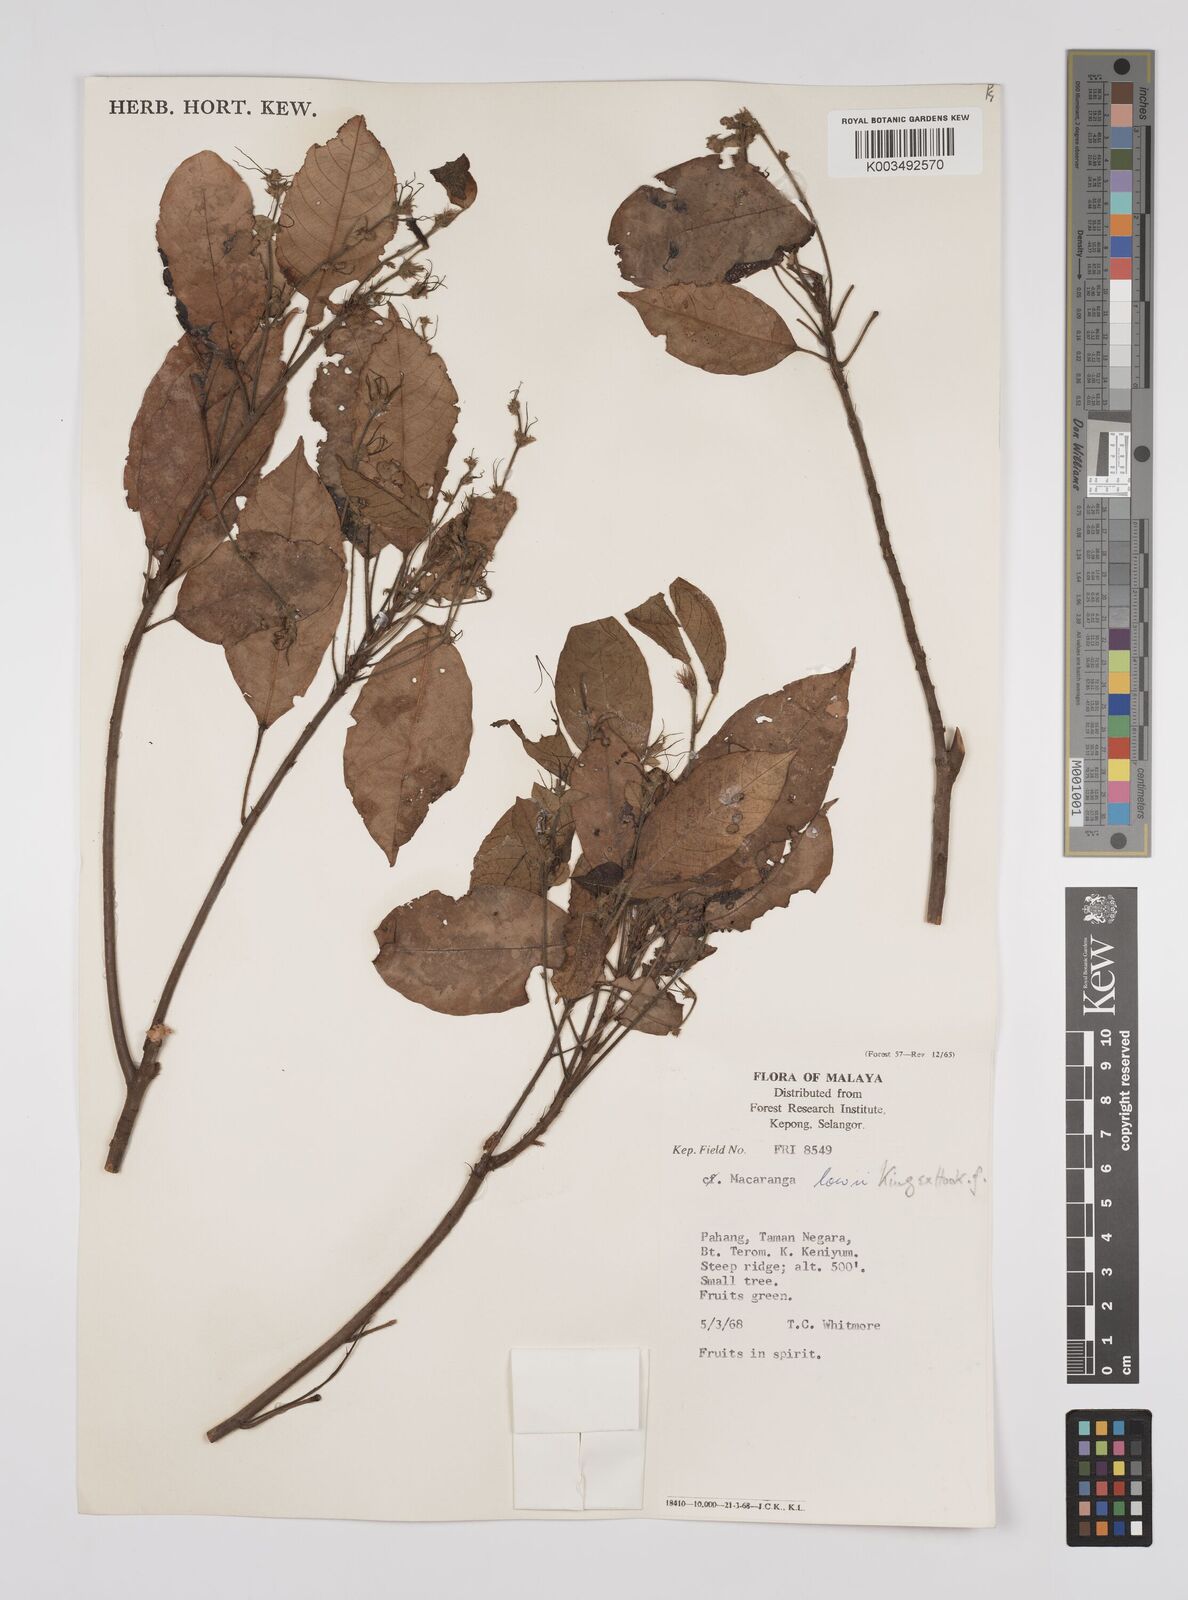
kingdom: Plantae
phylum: Tracheophyta
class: Magnoliopsida
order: Malpighiales
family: Euphorbiaceae
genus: Macaranga
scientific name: Macaranga lowii
